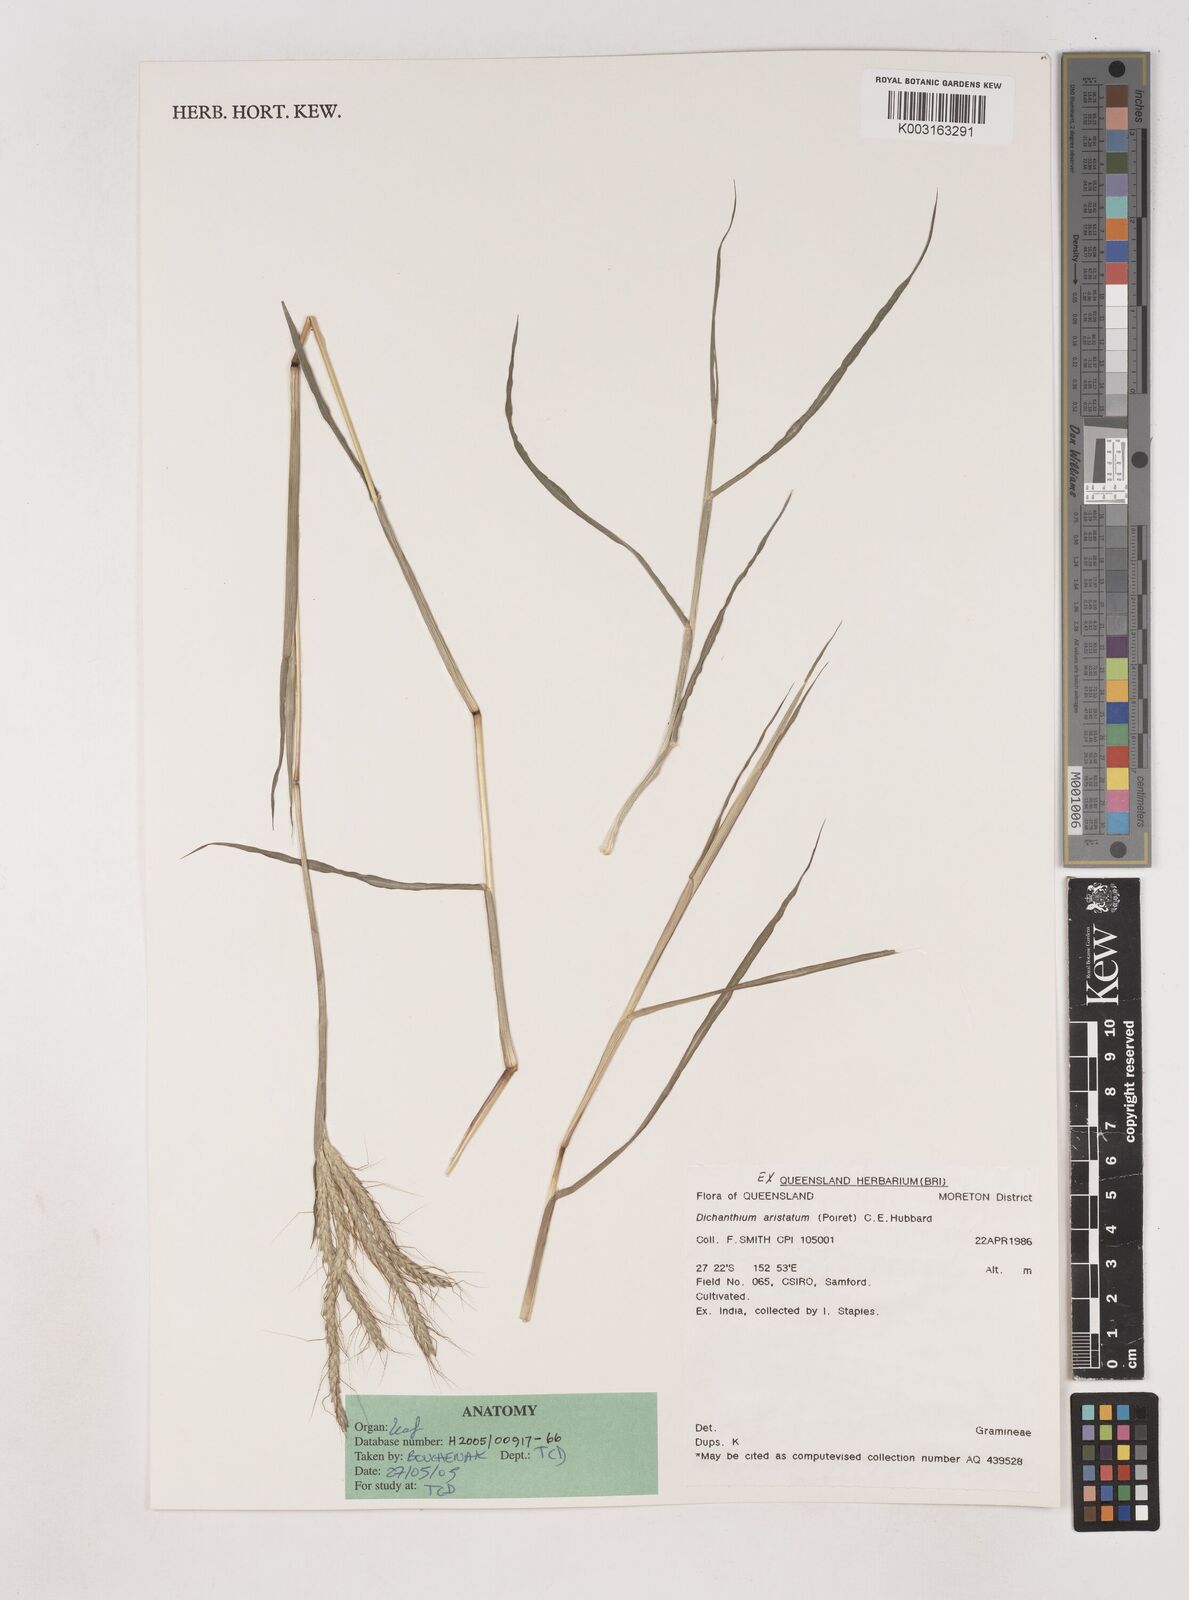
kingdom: Plantae
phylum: Tracheophyta
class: Liliopsida
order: Poales
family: Poaceae
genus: Dichanthium
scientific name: Dichanthium aristatum
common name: Angleton bluestem
